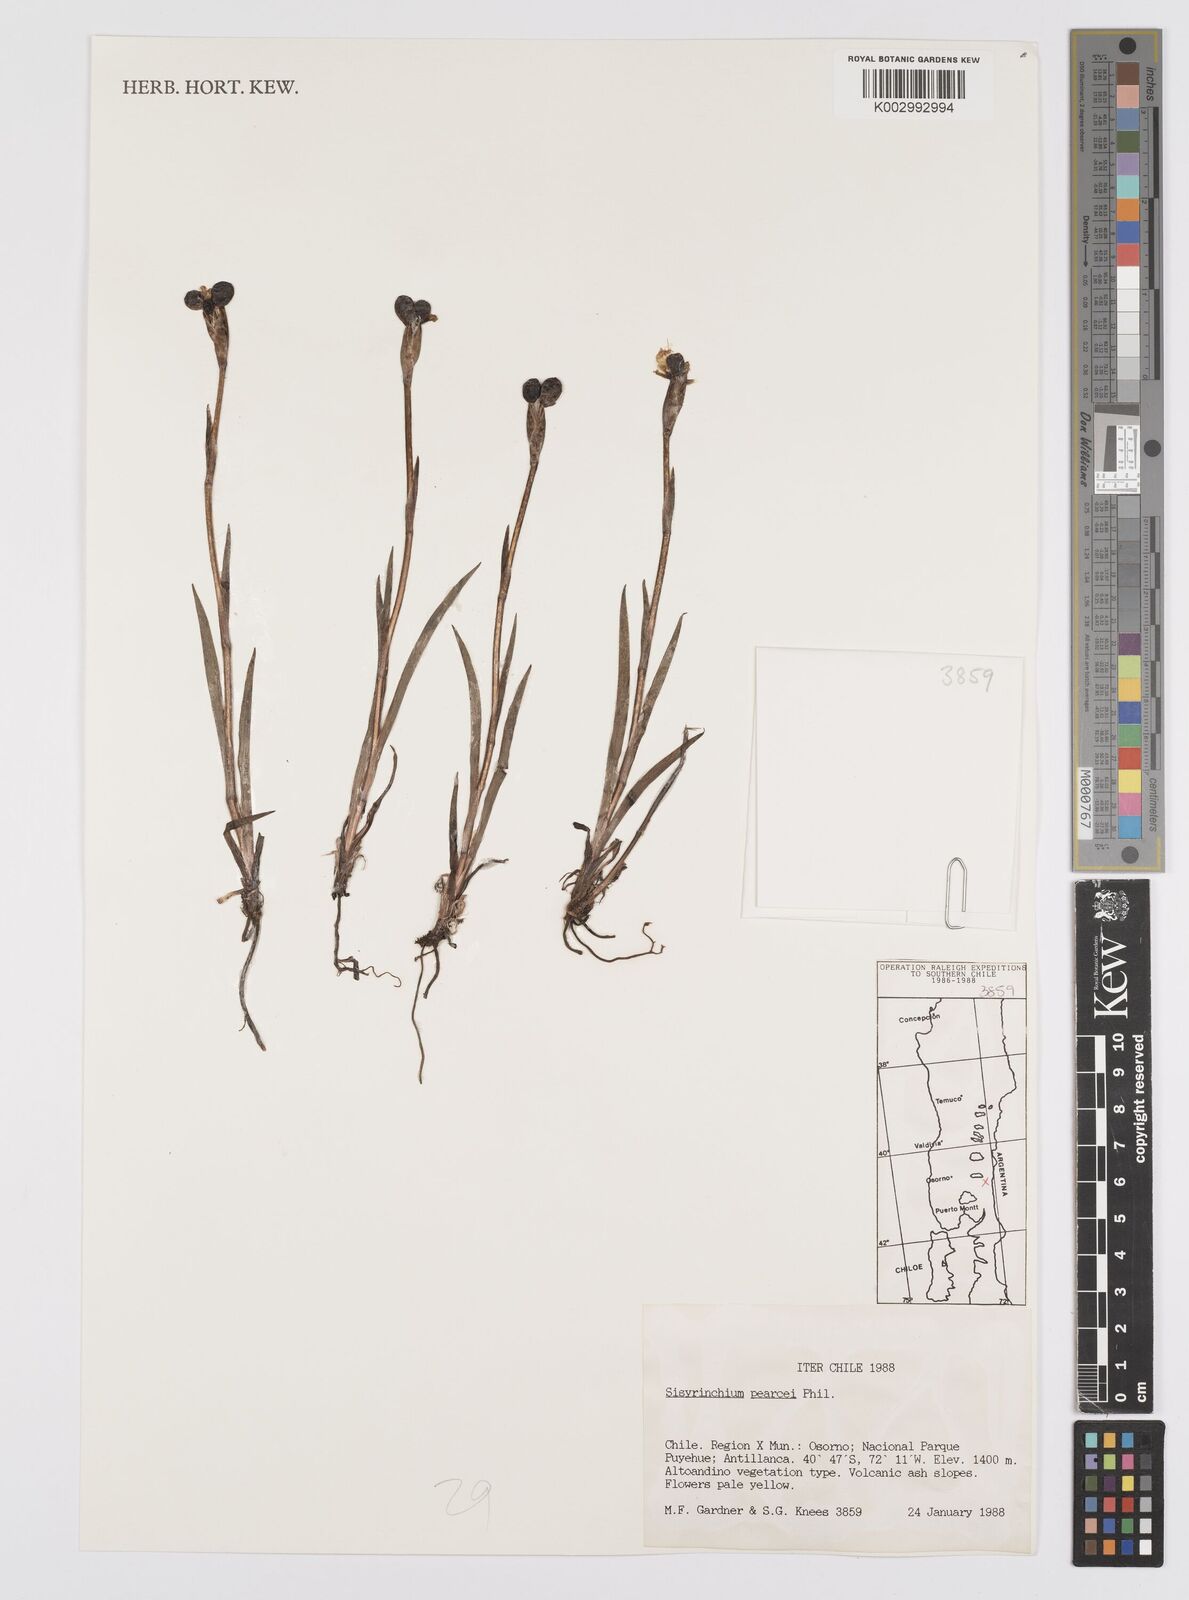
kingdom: Plantae
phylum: Tracheophyta
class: Liliopsida
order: Asparagales
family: Iridaceae
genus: Sisyrinchium
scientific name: Sisyrinchium pearcei
